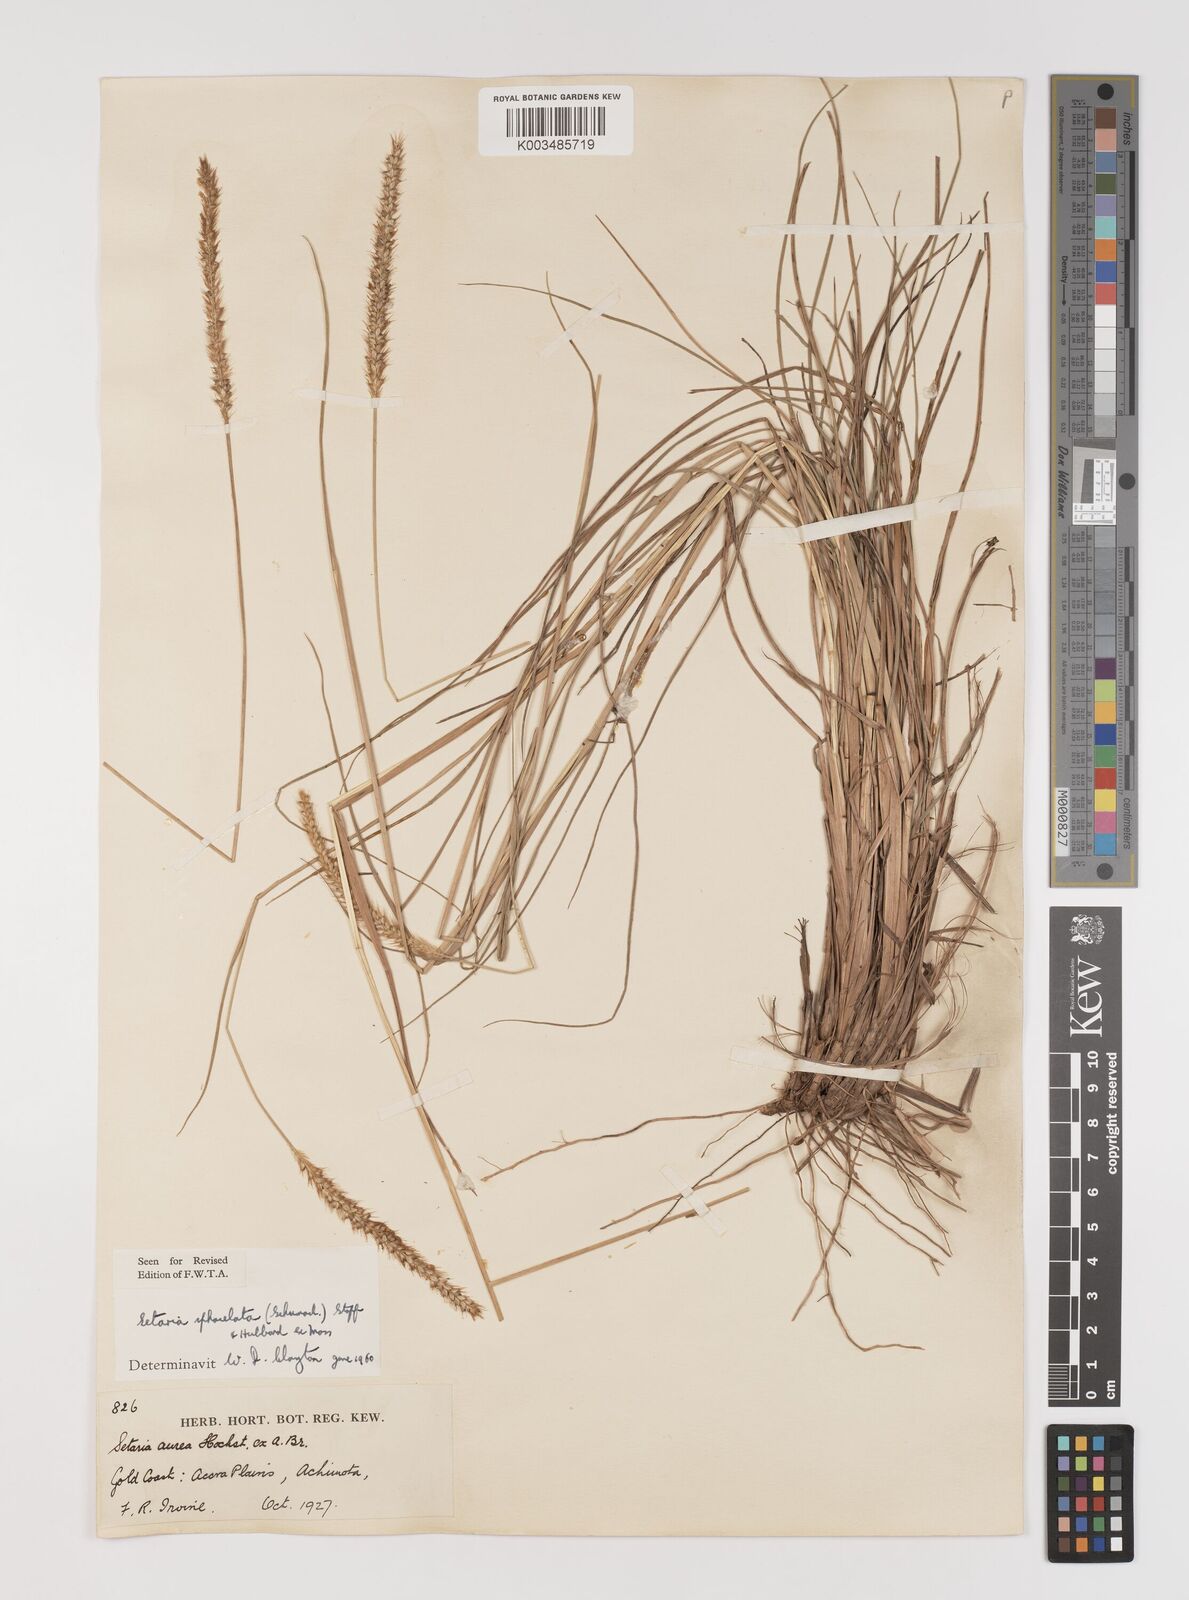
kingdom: Plantae
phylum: Tracheophyta
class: Liliopsida
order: Poales
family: Poaceae
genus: Setaria
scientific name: Setaria sphacelata
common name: African bristlegrass
